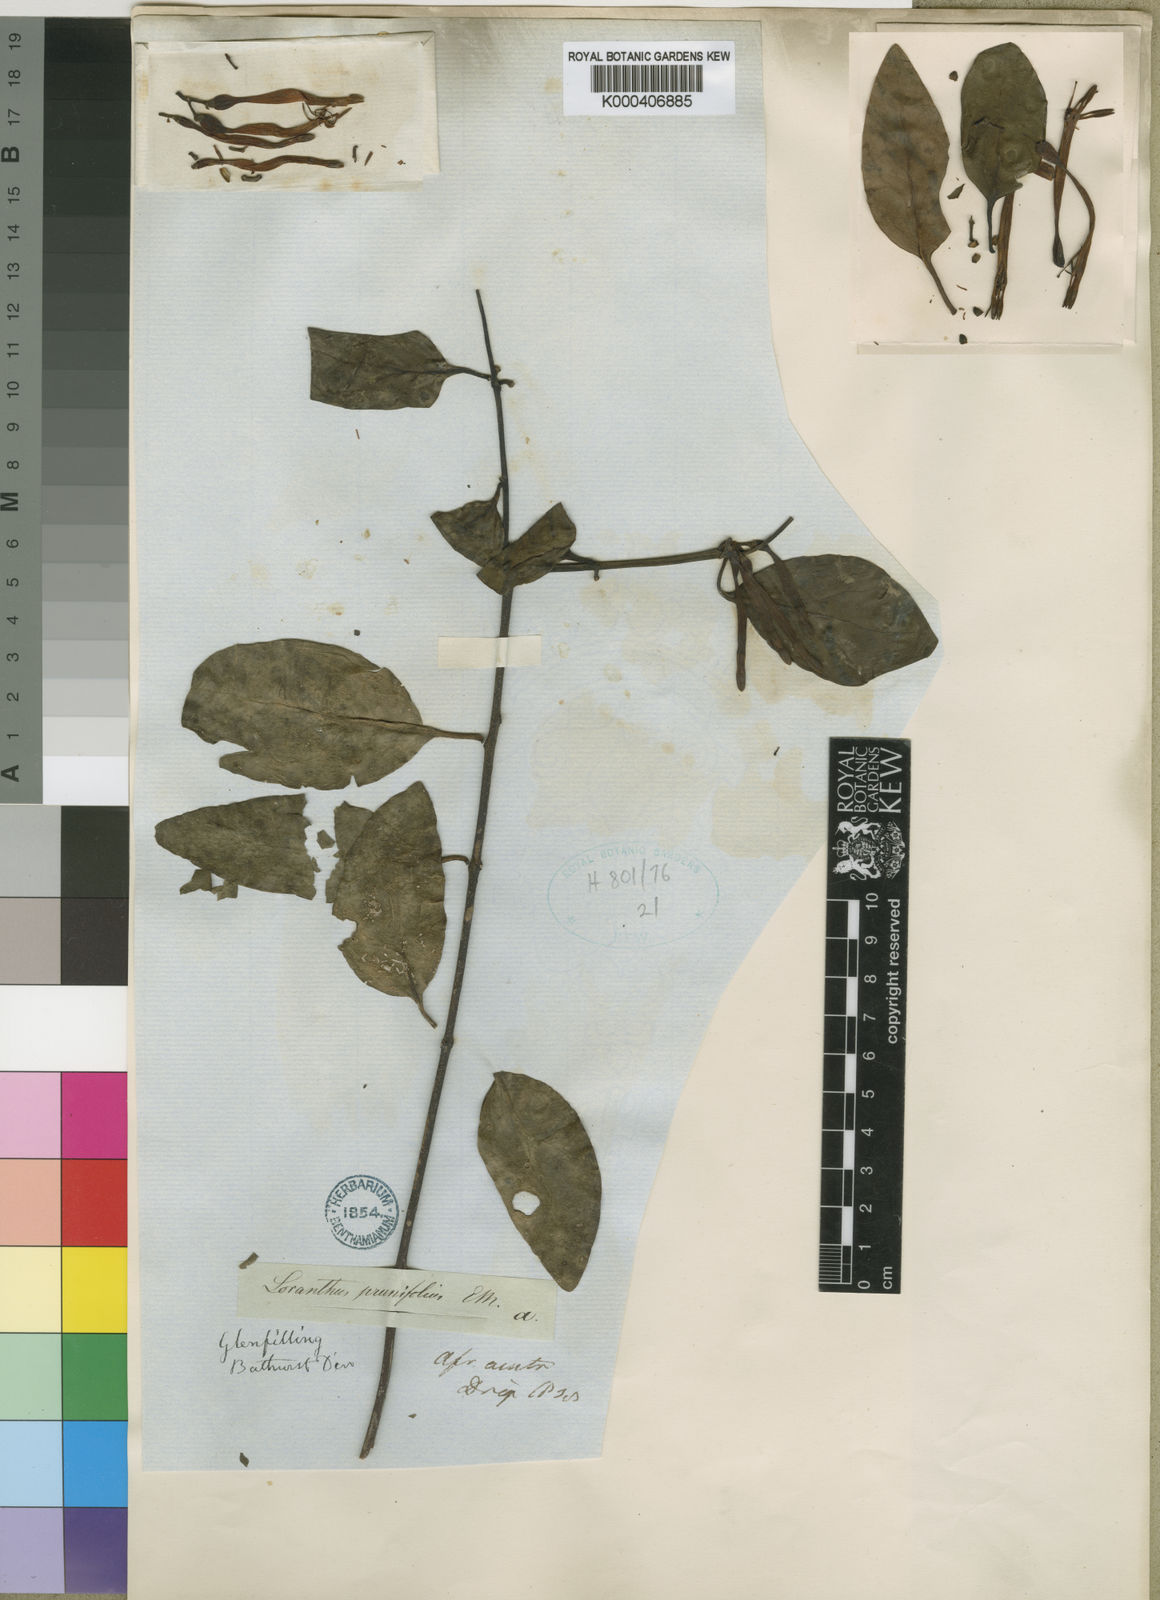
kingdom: Plantae
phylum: Tracheophyta
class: Magnoliopsida
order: Santalales
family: Loranthaceae
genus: Agelanthus
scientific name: Agelanthus prunifolius
